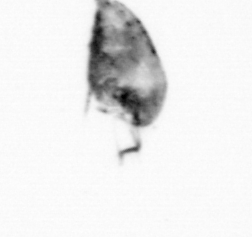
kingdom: Animalia
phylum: Arthropoda
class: Copepoda
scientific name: Copepoda
